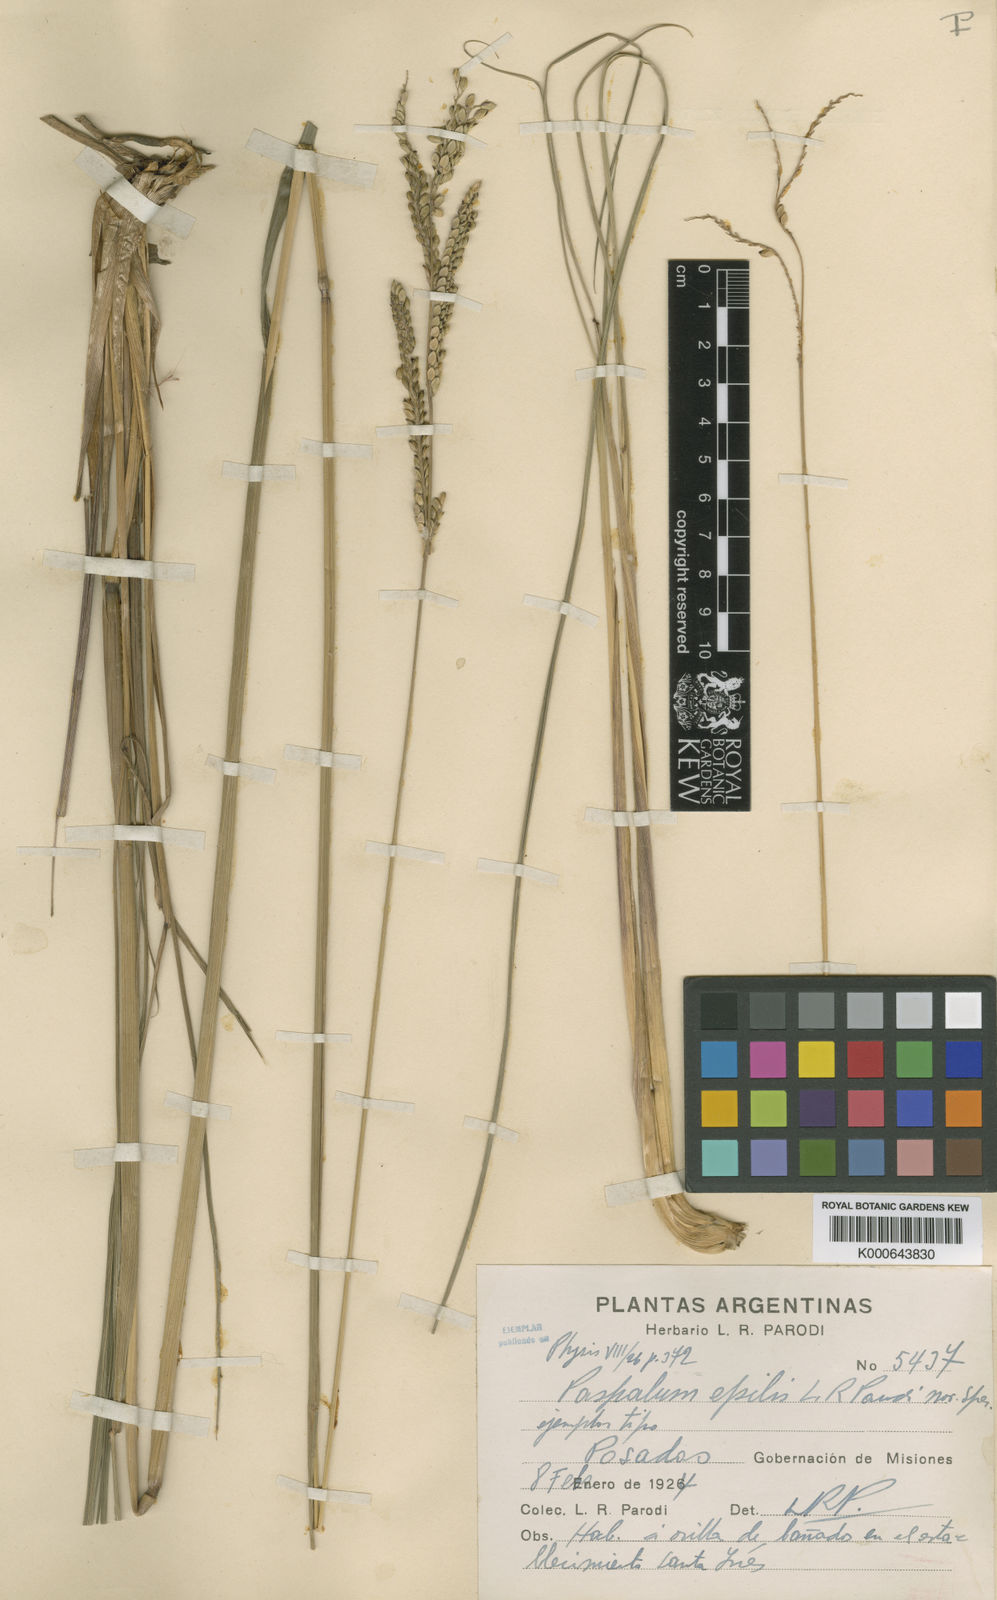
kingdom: Plantae
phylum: Tracheophyta
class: Liliopsida
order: Poales
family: Poaceae
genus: Paspalum
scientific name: Paspalum ovale
